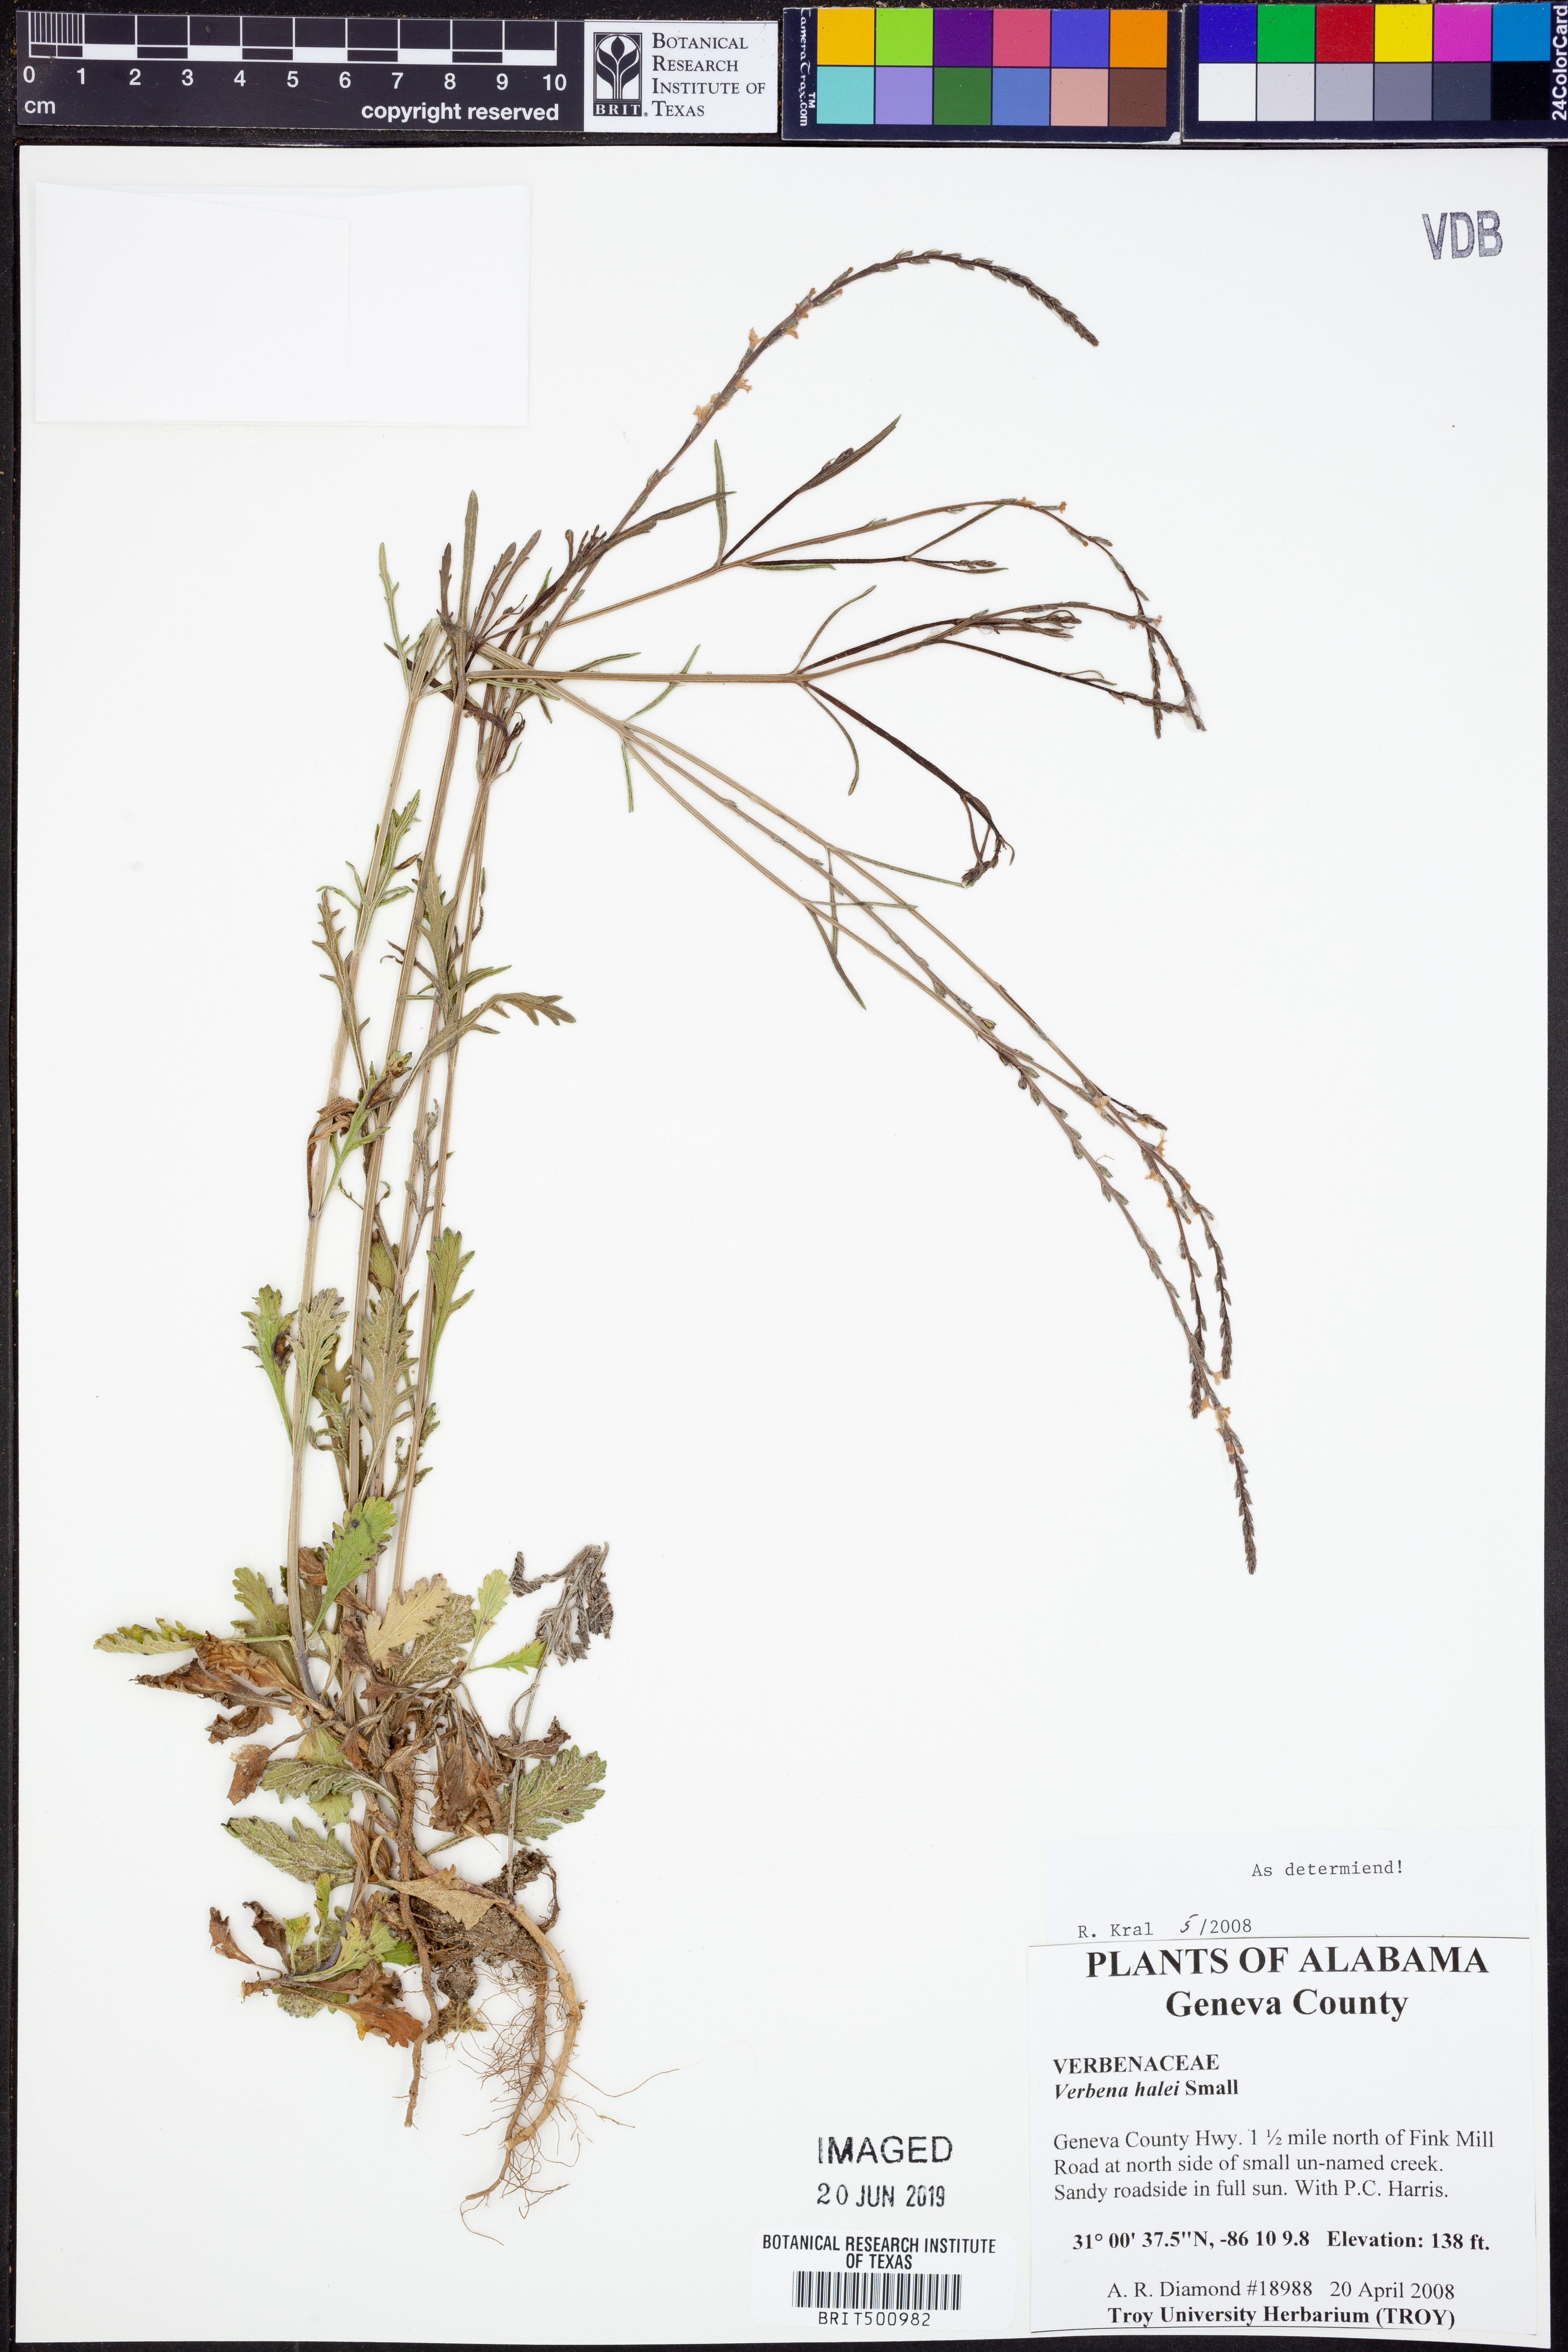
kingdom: Plantae
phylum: Tracheophyta
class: Magnoliopsida
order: Lamiales
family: Verbenaceae
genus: Verbena
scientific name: Verbena halei
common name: Texas vervain
